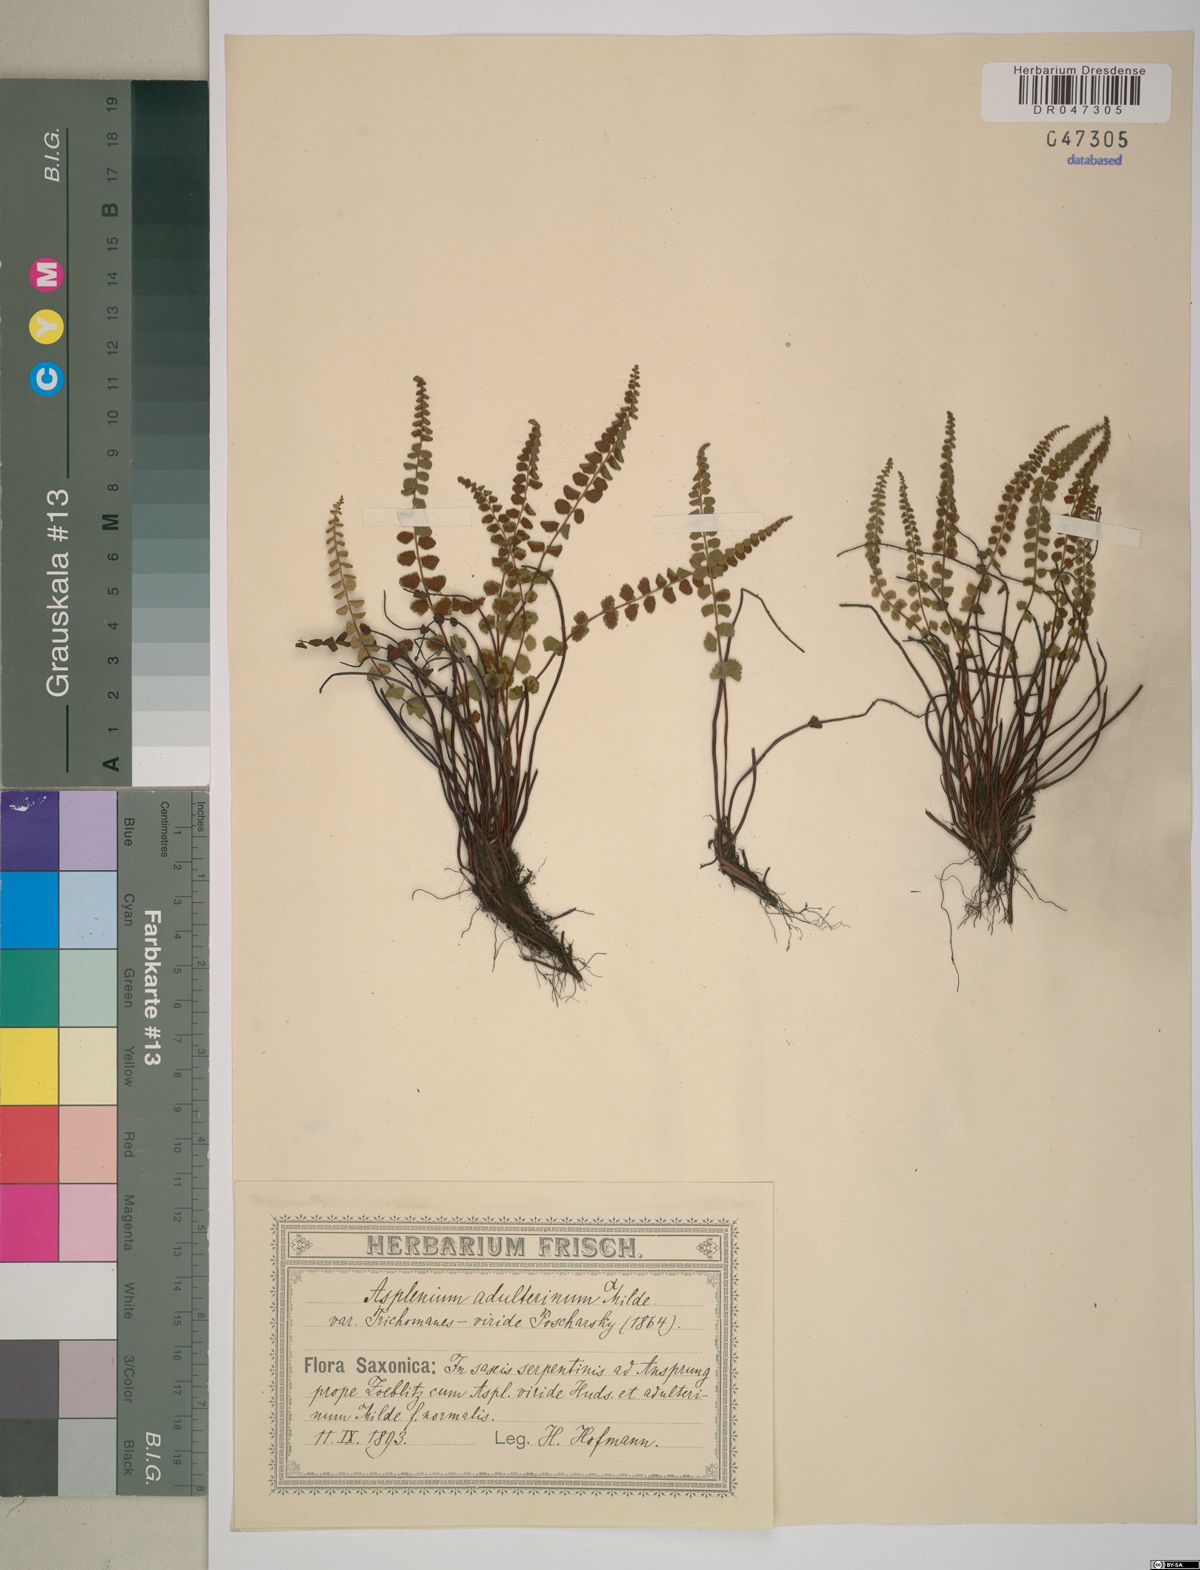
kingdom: Plantae
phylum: Tracheophyta
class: Polypodiopsida
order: Polypodiales
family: Aspleniaceae
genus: Asplenium
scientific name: Asplenium adulterinum
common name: Adulterated spleenwort
